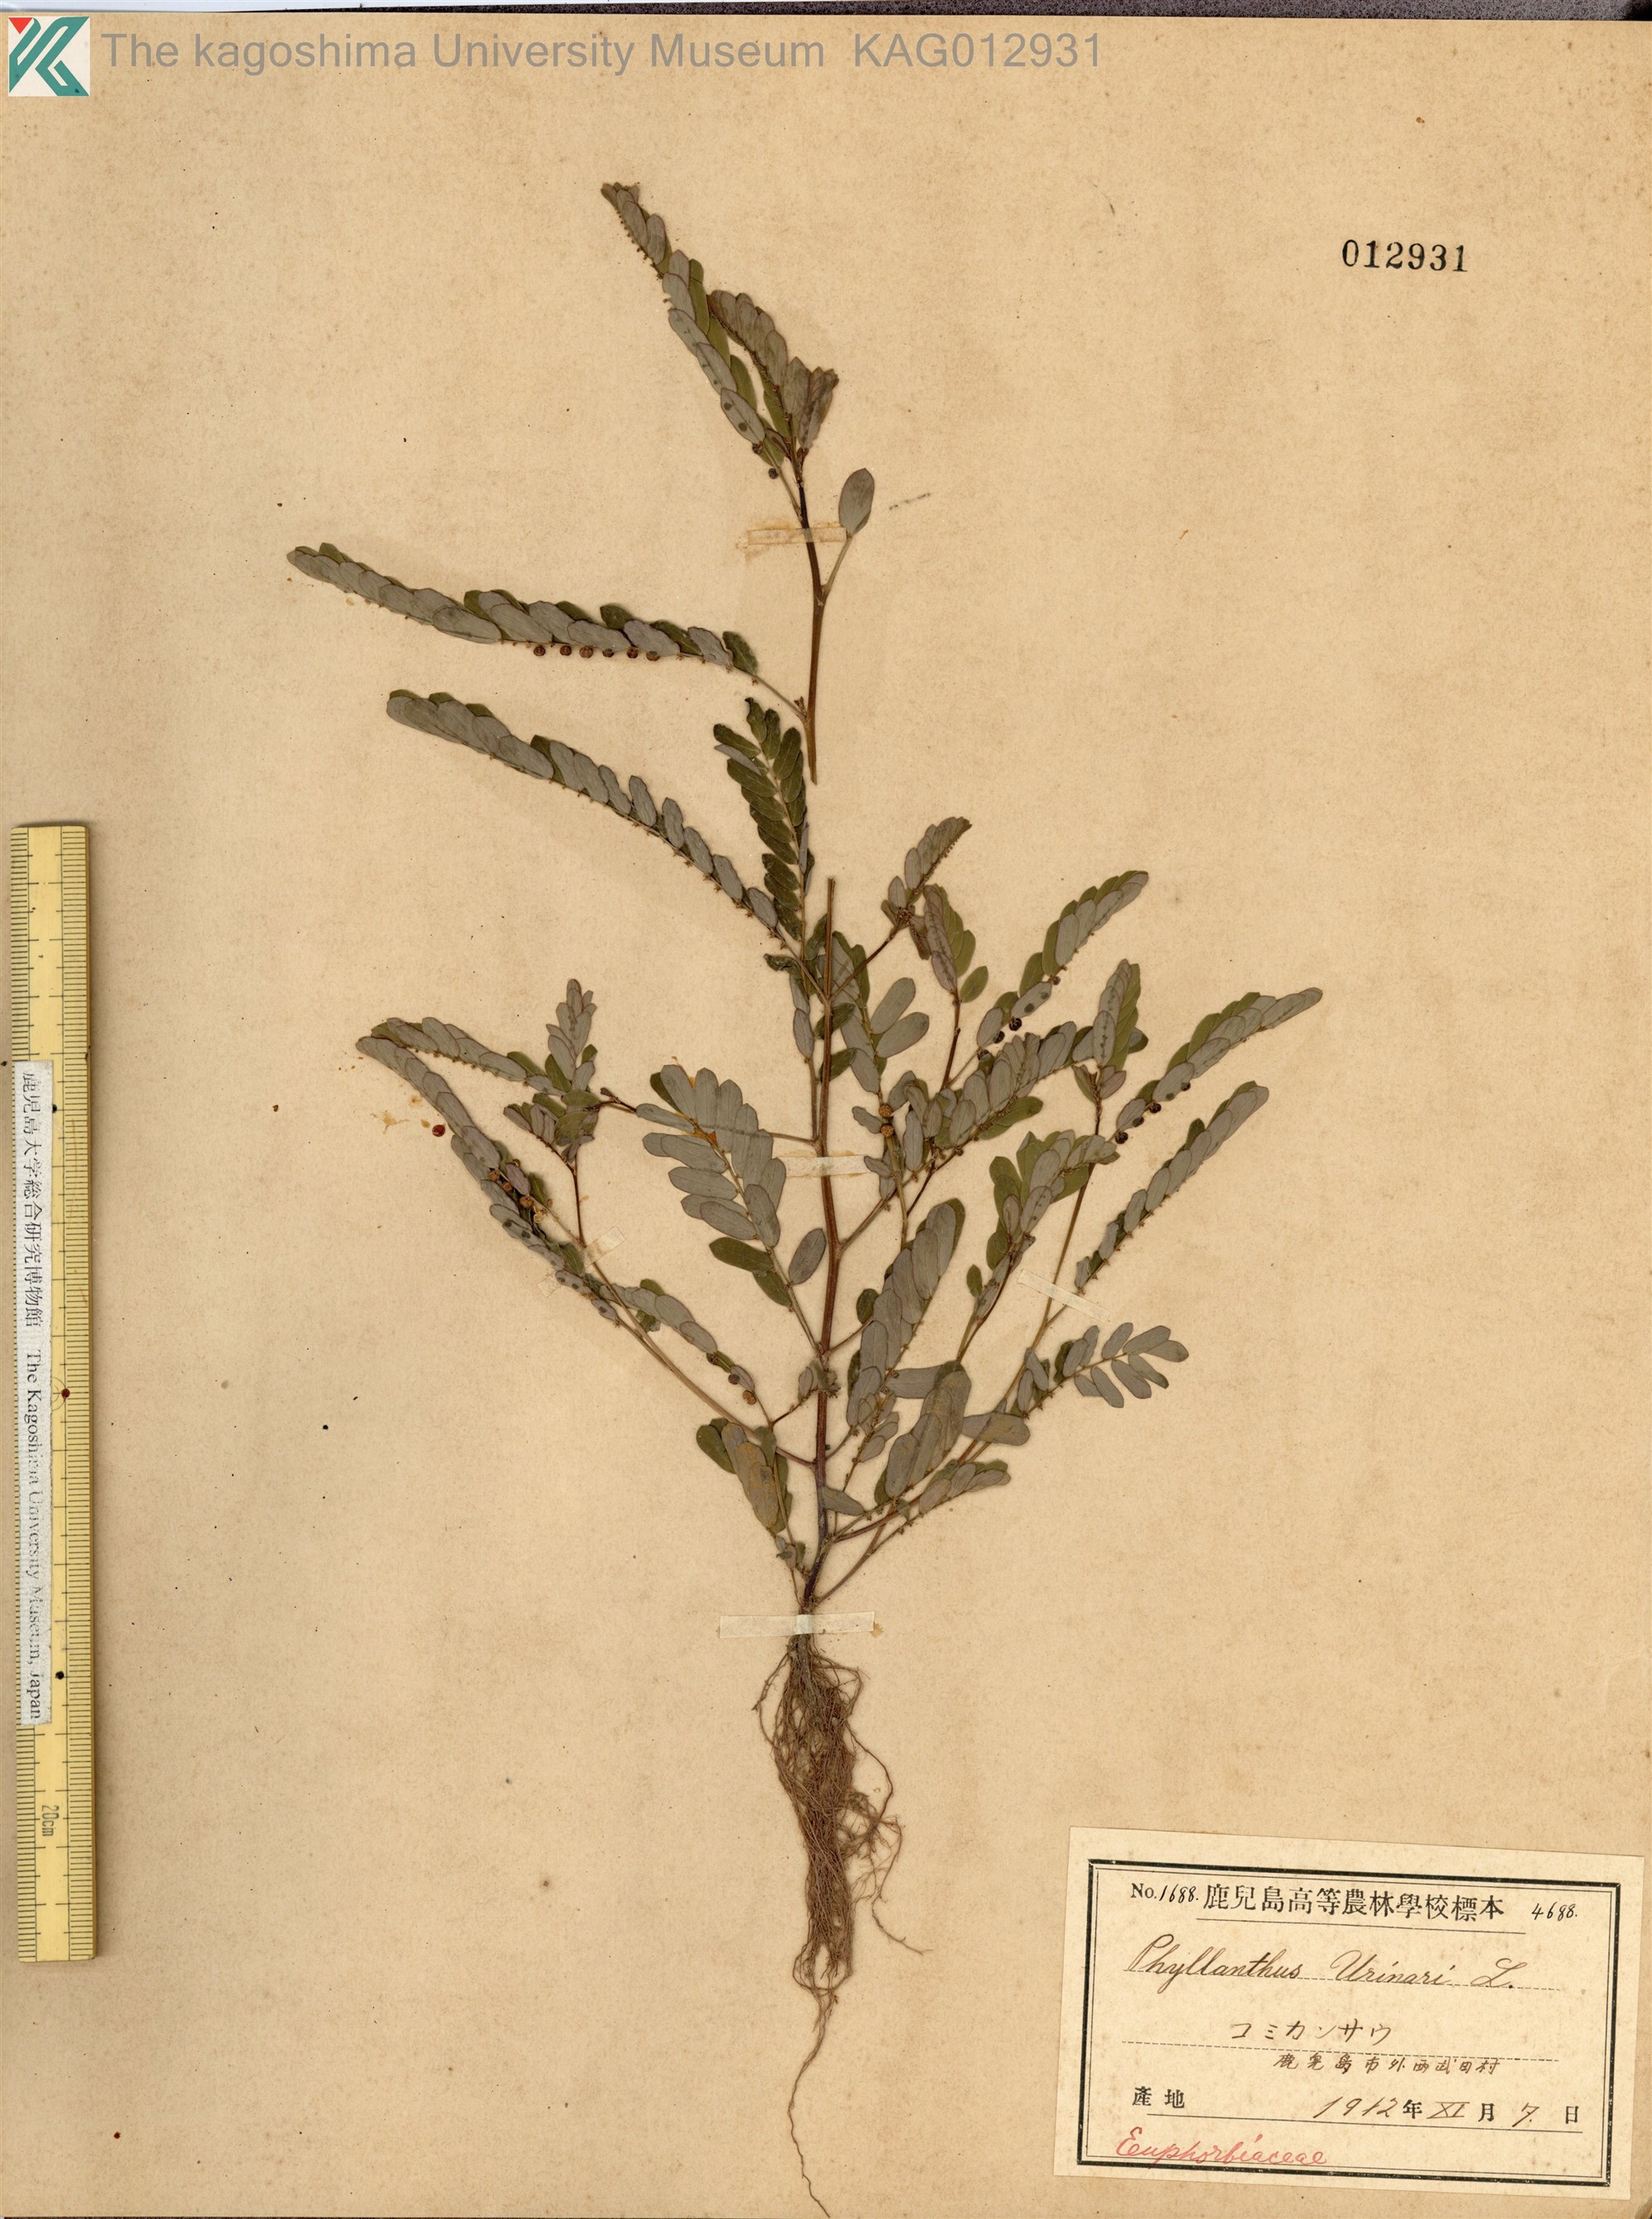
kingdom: Plantae
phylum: Tracheophyta
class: Magnoliopsida
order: Malpighiales
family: Phyllanthaceae
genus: Phyllanthus
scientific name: Phyllanthus urinaria
